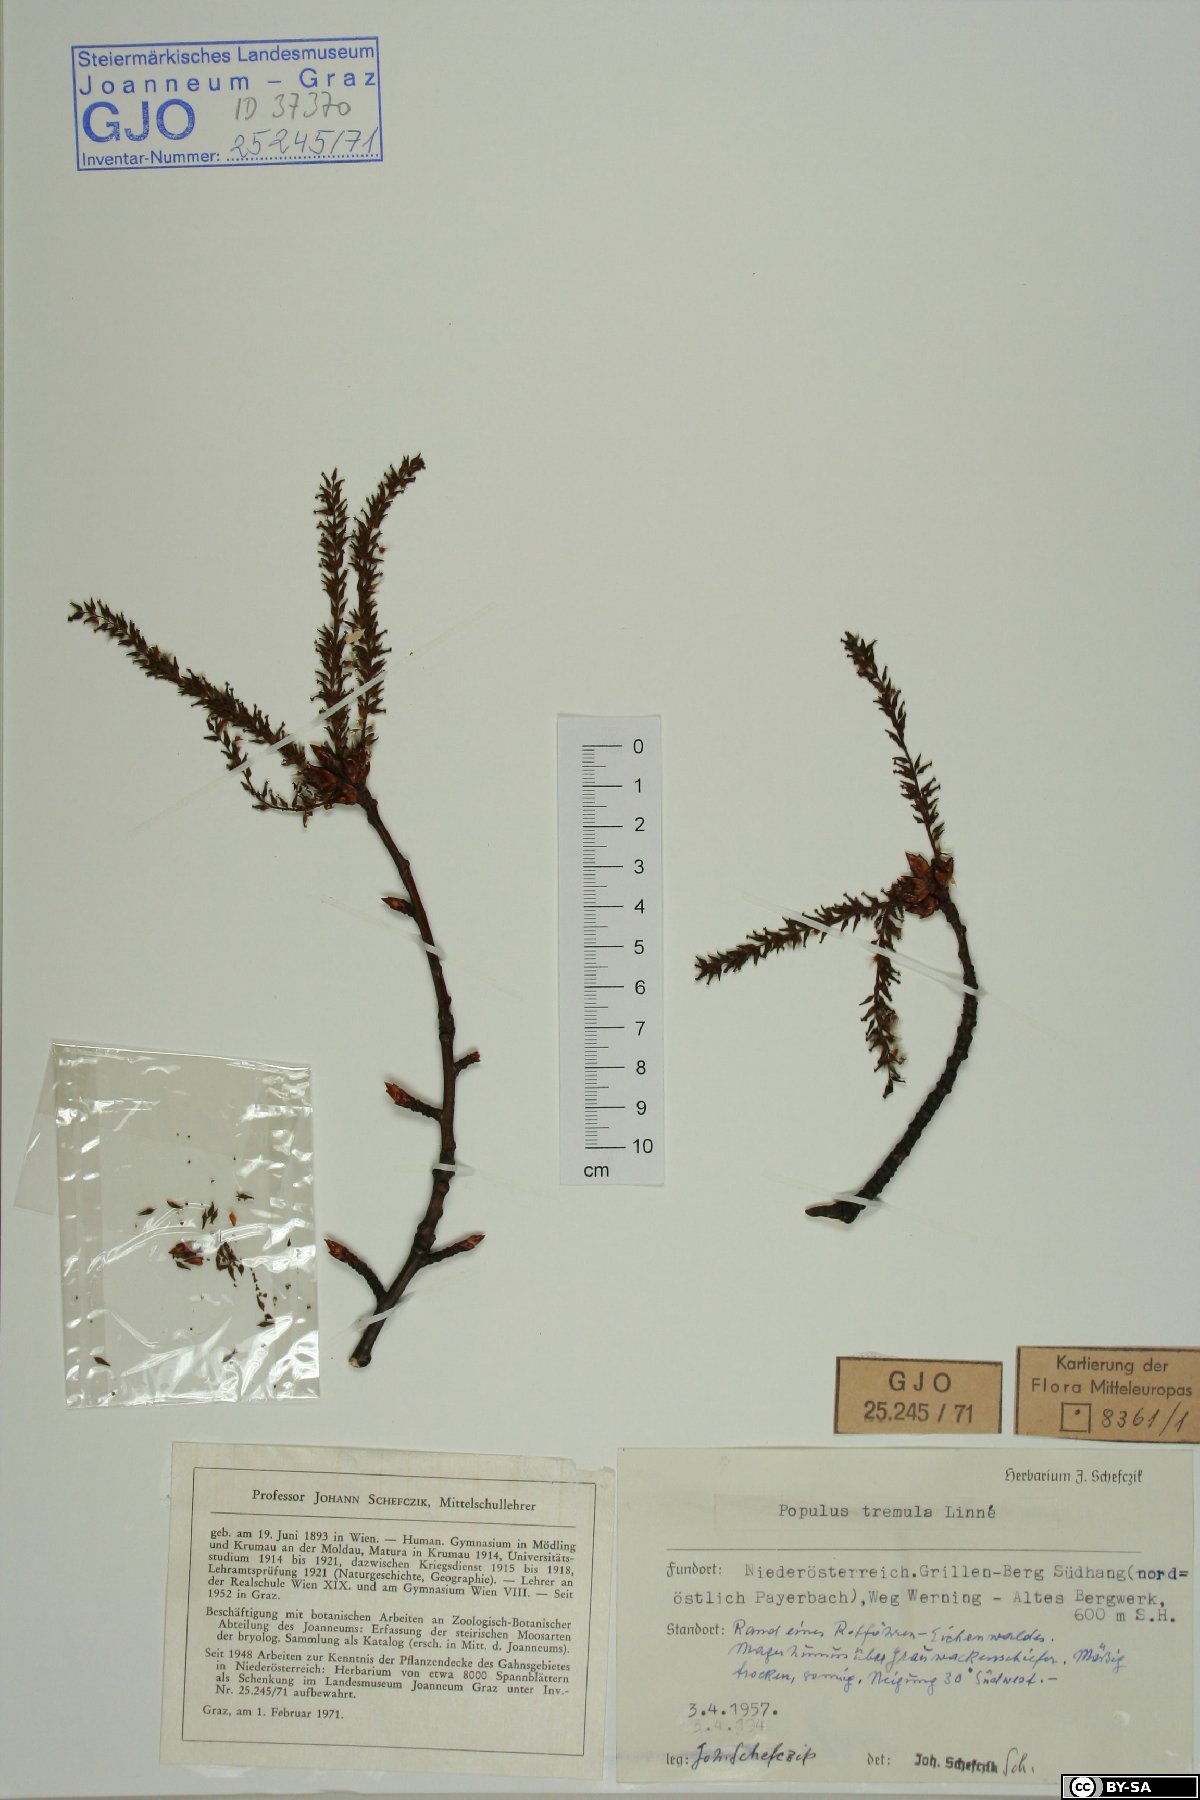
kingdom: Plantae
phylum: Tracheophyta
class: Magnoliopsida
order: Malpighiales
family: Salicaceae
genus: Populus
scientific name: Populus tremula
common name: European aspen
